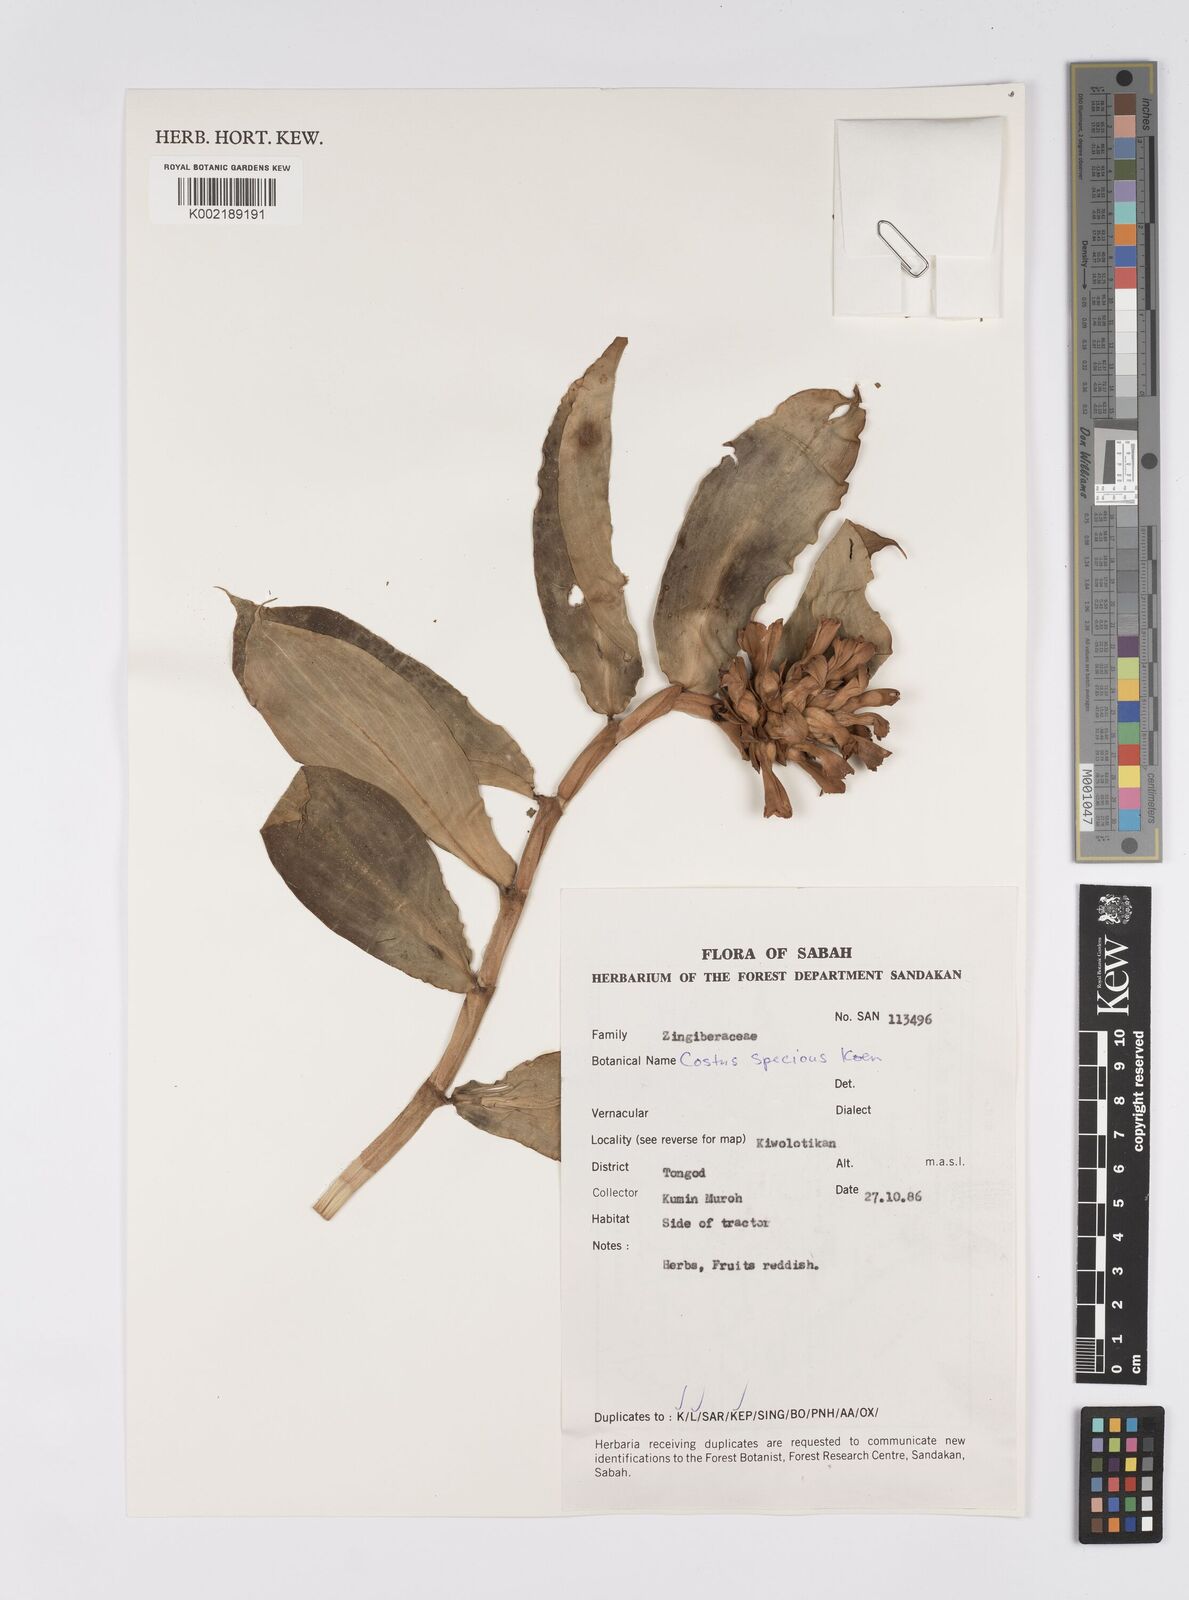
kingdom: Plantae
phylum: Tracheophyta
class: Liliopsida
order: Zingiberales
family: Costaceae
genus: Hellenia
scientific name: Hellenia speciosa
